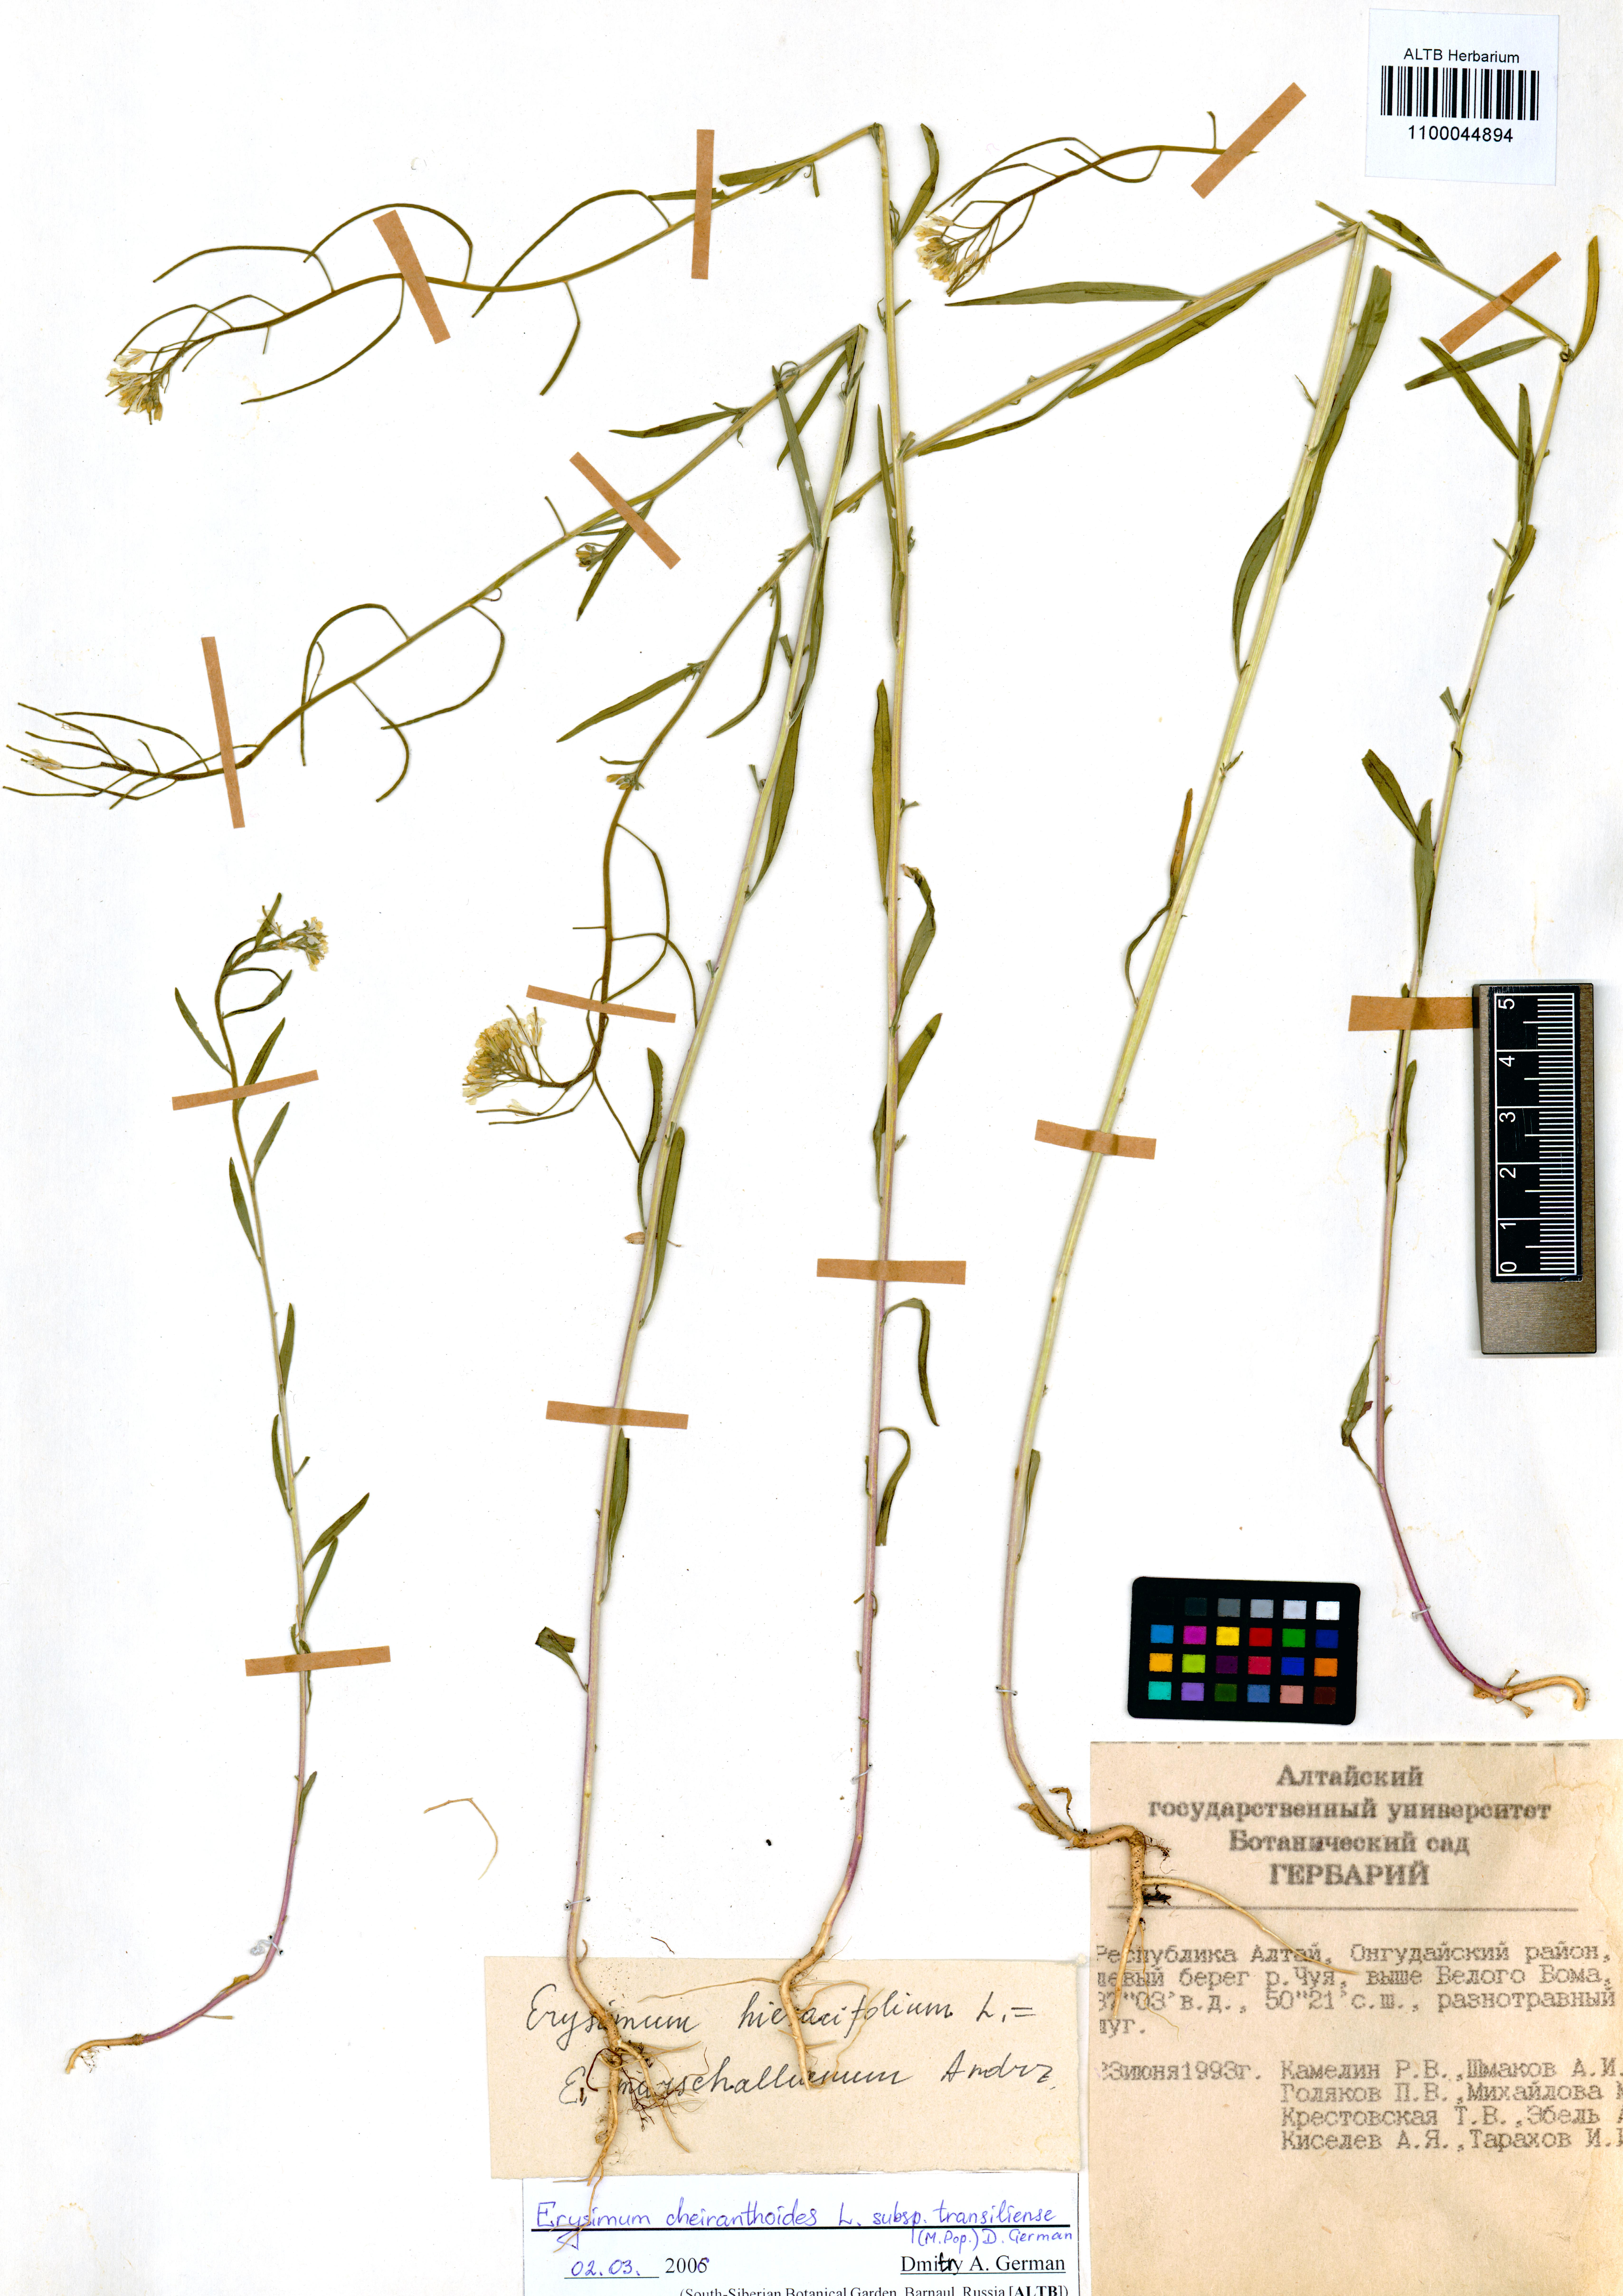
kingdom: Plantae
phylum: Tracheophyta
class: Magnoliopsida
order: Brassicales
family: Brassicaceae
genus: Erysimum
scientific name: Erysimum virgatum
